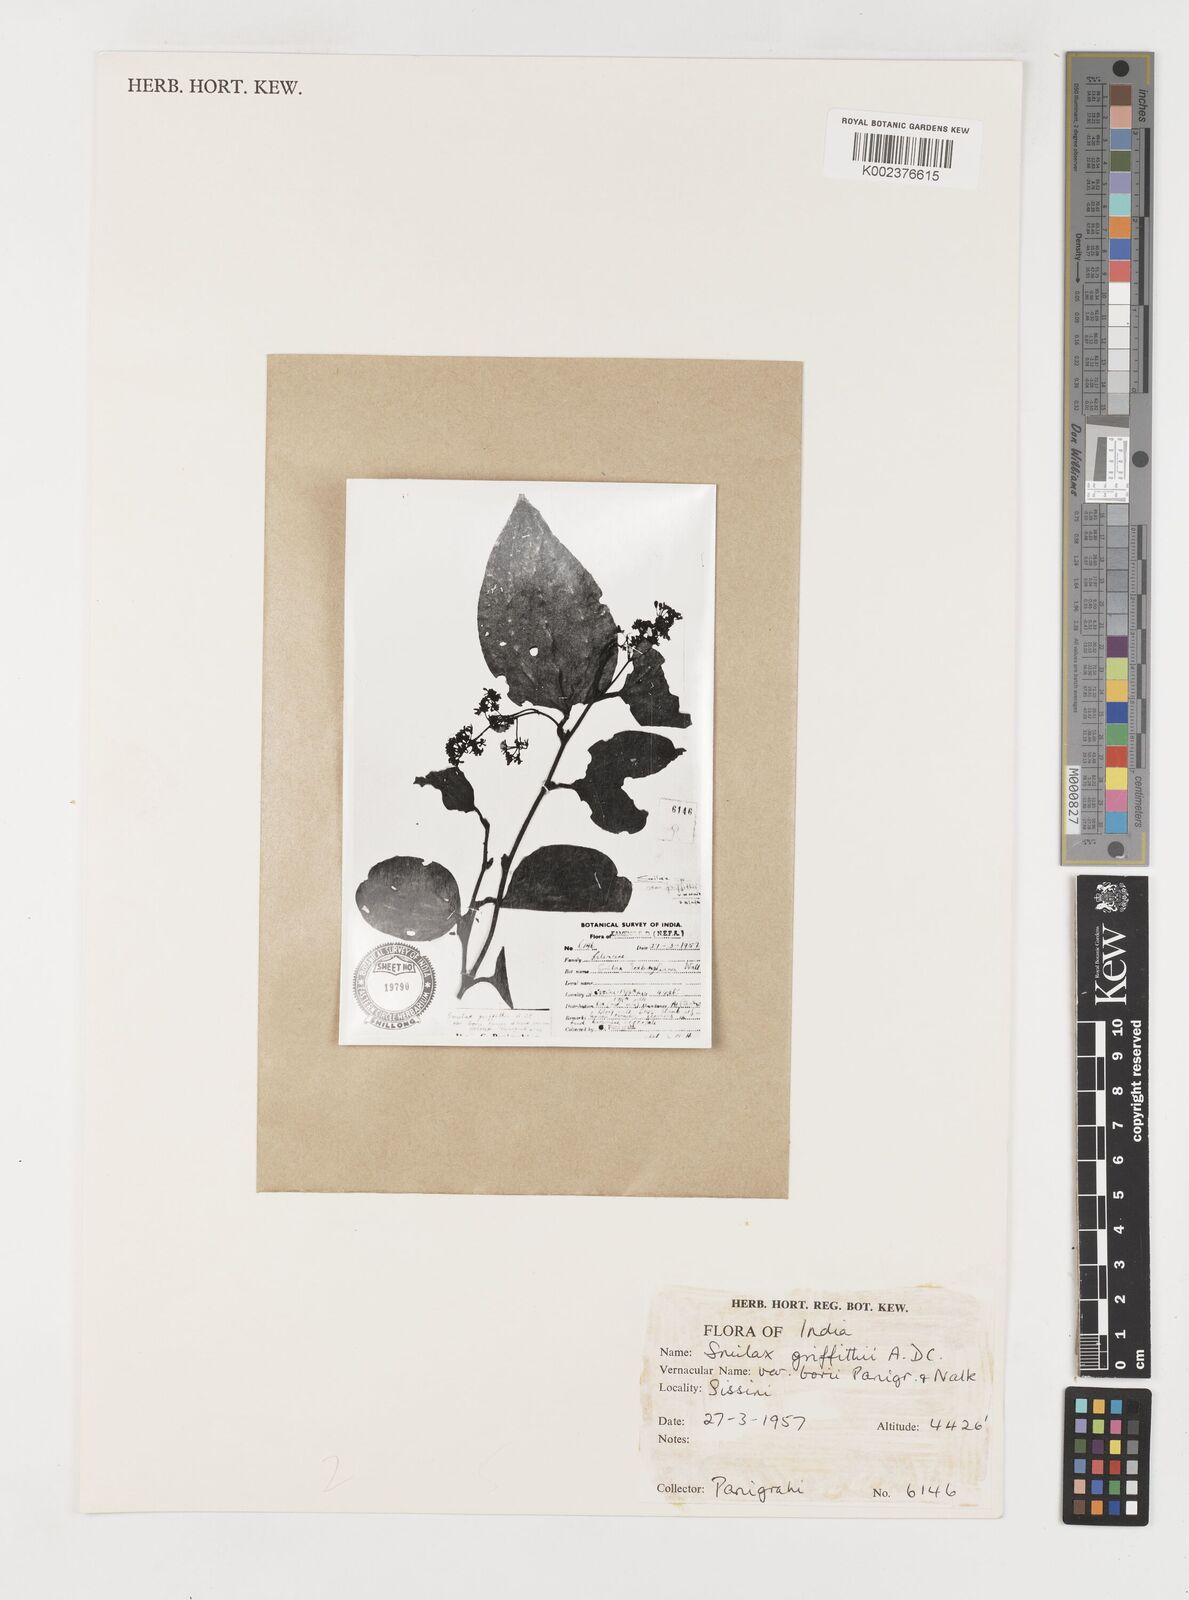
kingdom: Plantae
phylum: Tracheophyta
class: Liliopsida
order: Liliales
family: Smilacaceae
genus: Smilax
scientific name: Smilax griffithii
